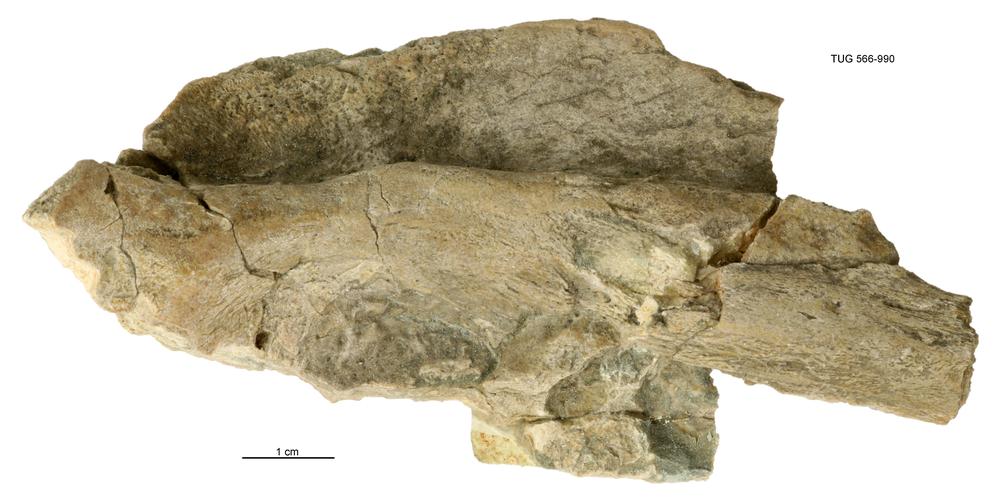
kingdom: Animalia
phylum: Chordata
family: Holoptychiidae
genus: Glyptolepis
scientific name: Glyptolepis
